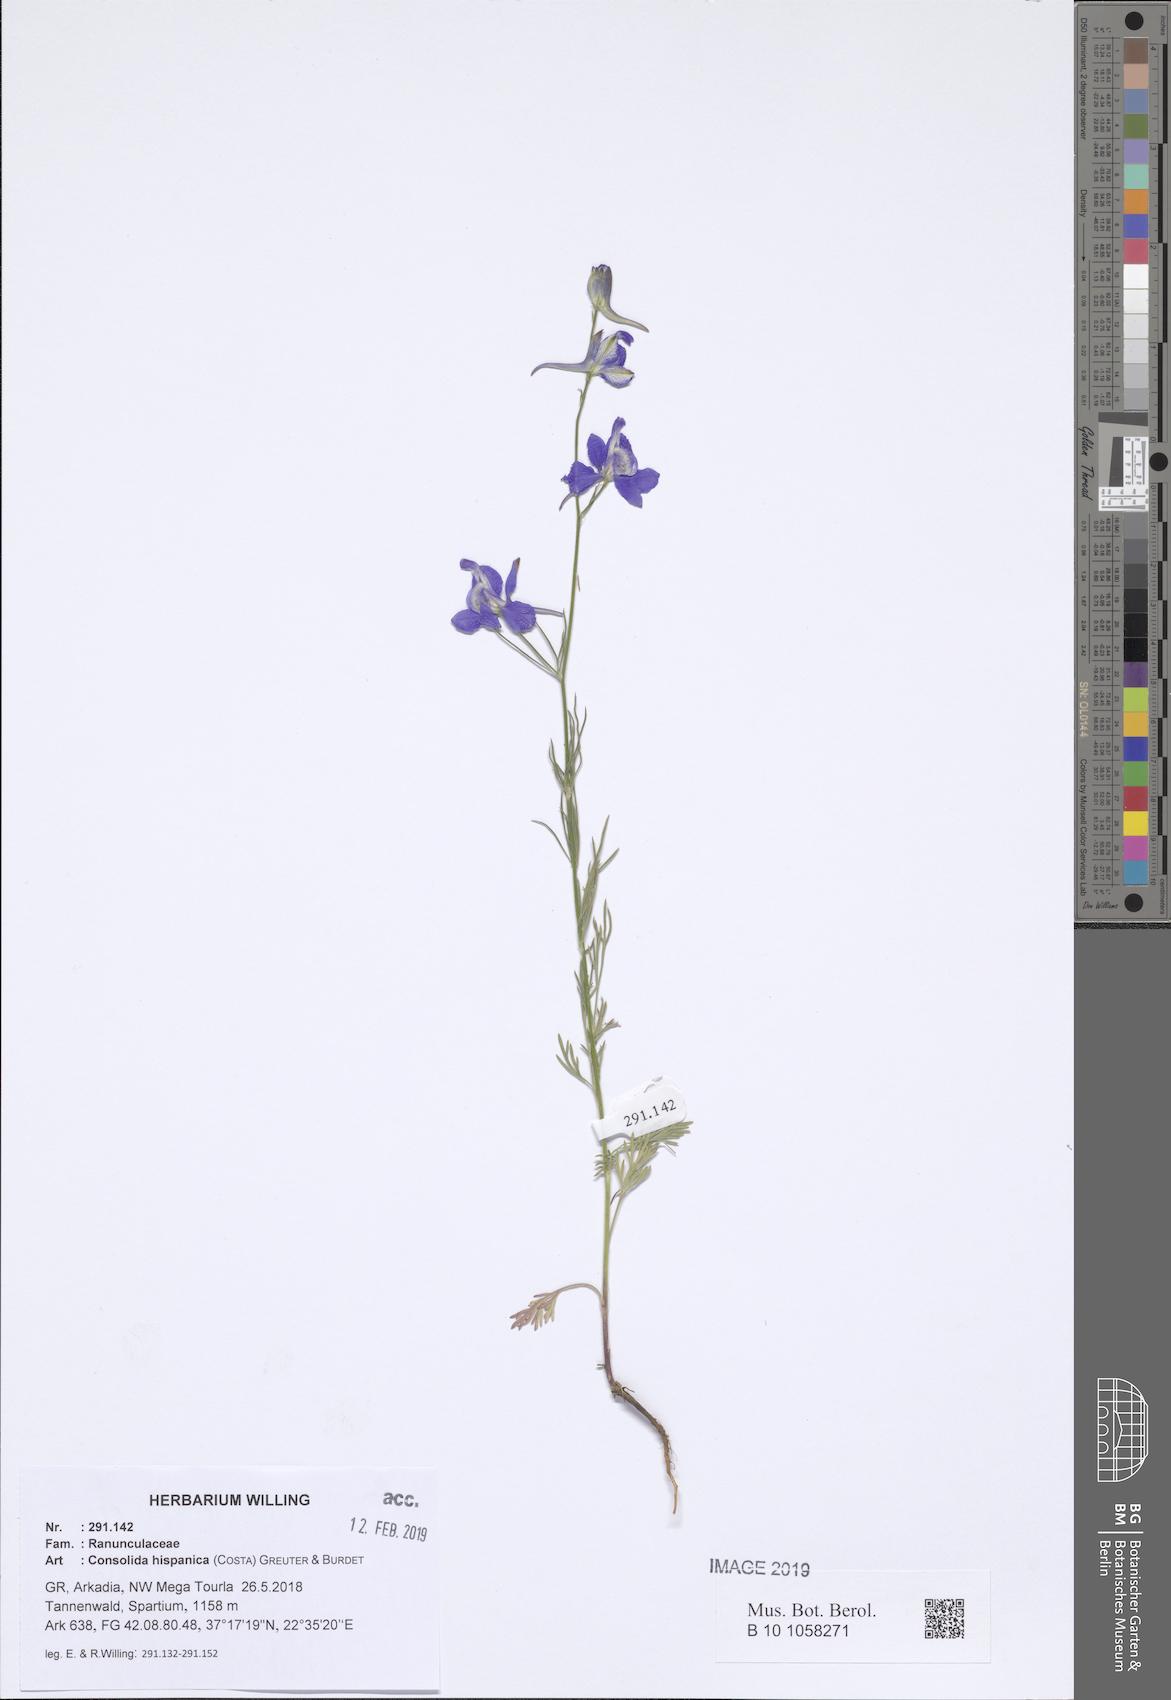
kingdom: Plantae
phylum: Tracheophyta
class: Magnoliopsida
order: Ranunculales
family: Ranunculaceae
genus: Delphinium
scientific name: Delphinium hispanicum
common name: Oriental knight's-spur
